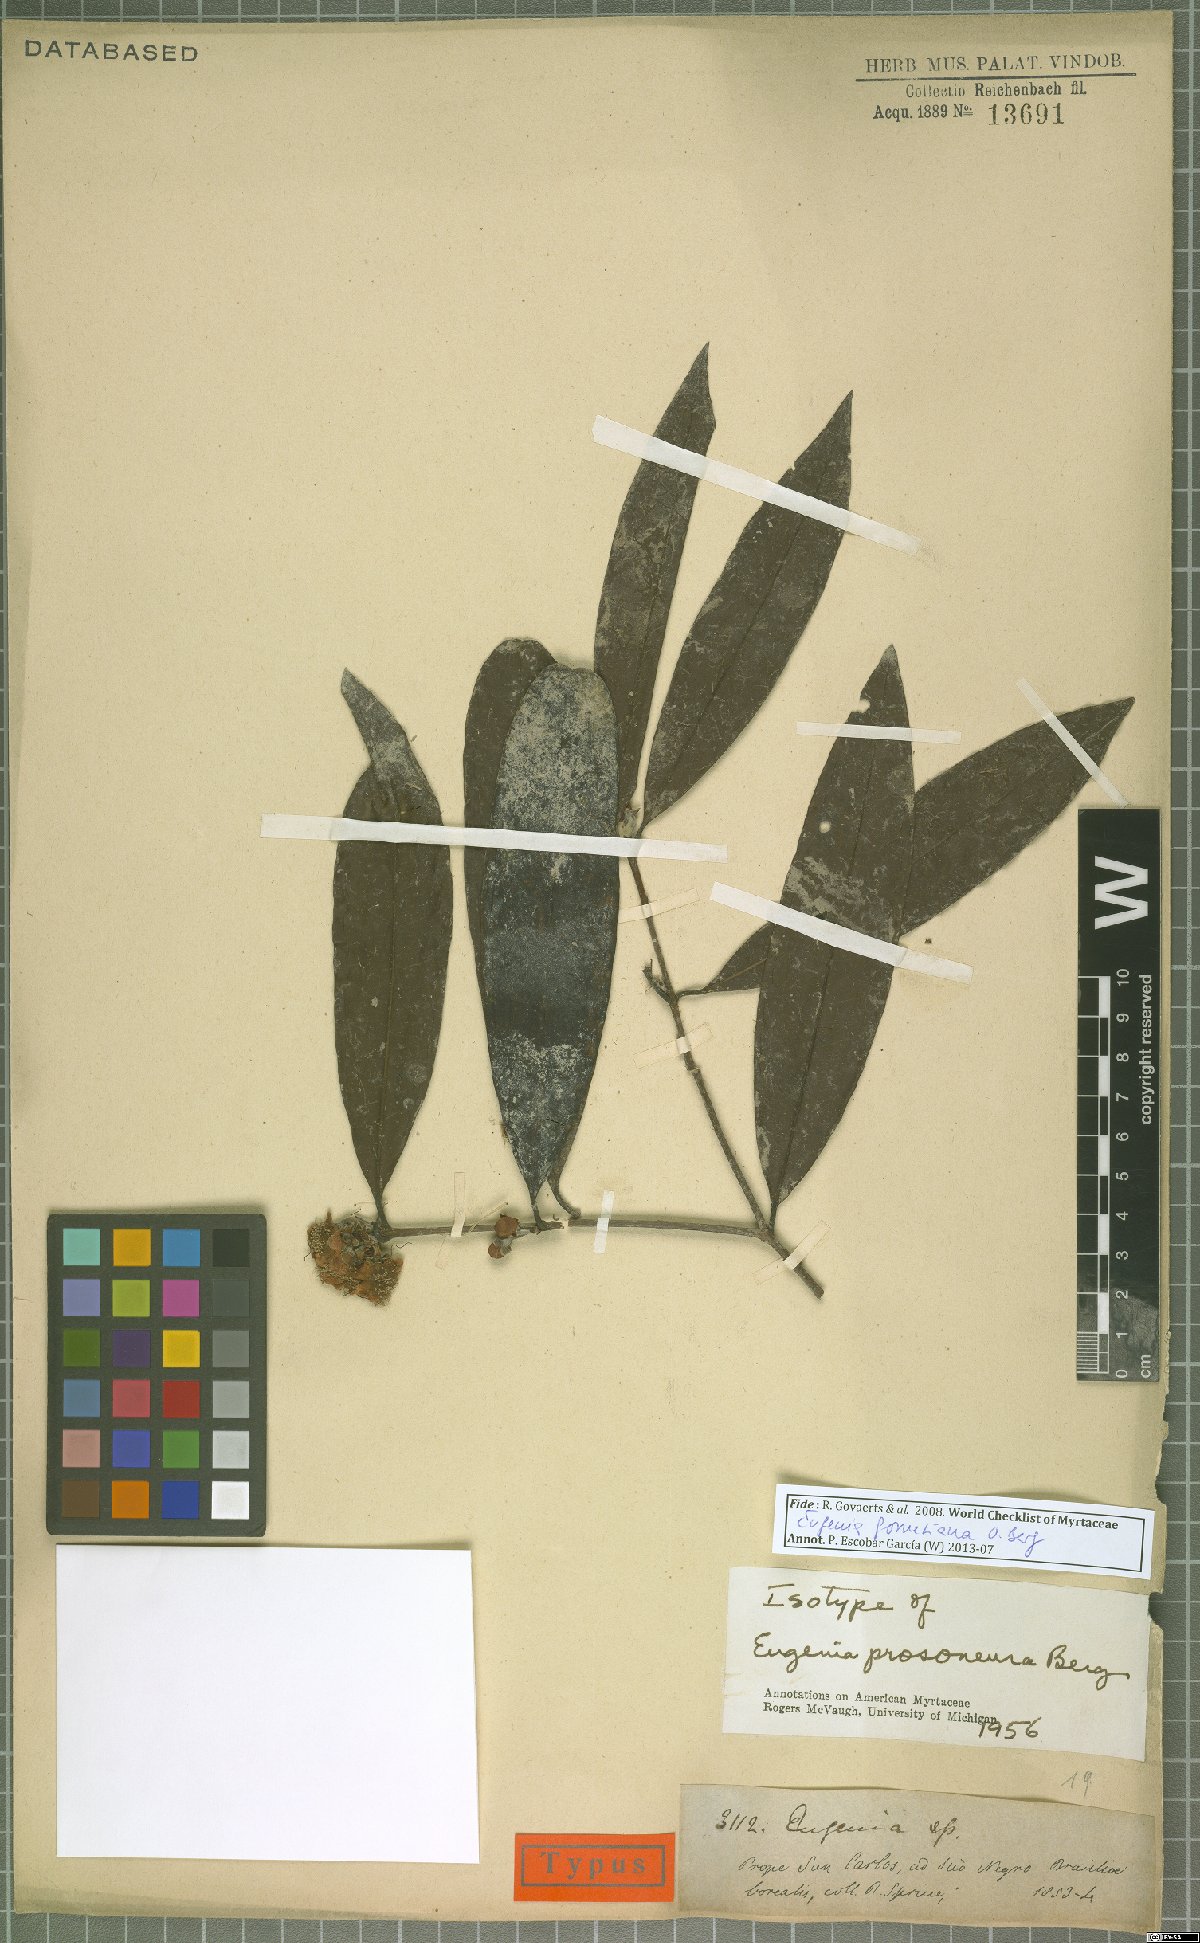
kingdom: Plantae
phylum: Tracheophyta
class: Magnoliopsida
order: Myrtales
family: Myrtaceae
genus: Eugenia
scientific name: Eugenia gomesiana
